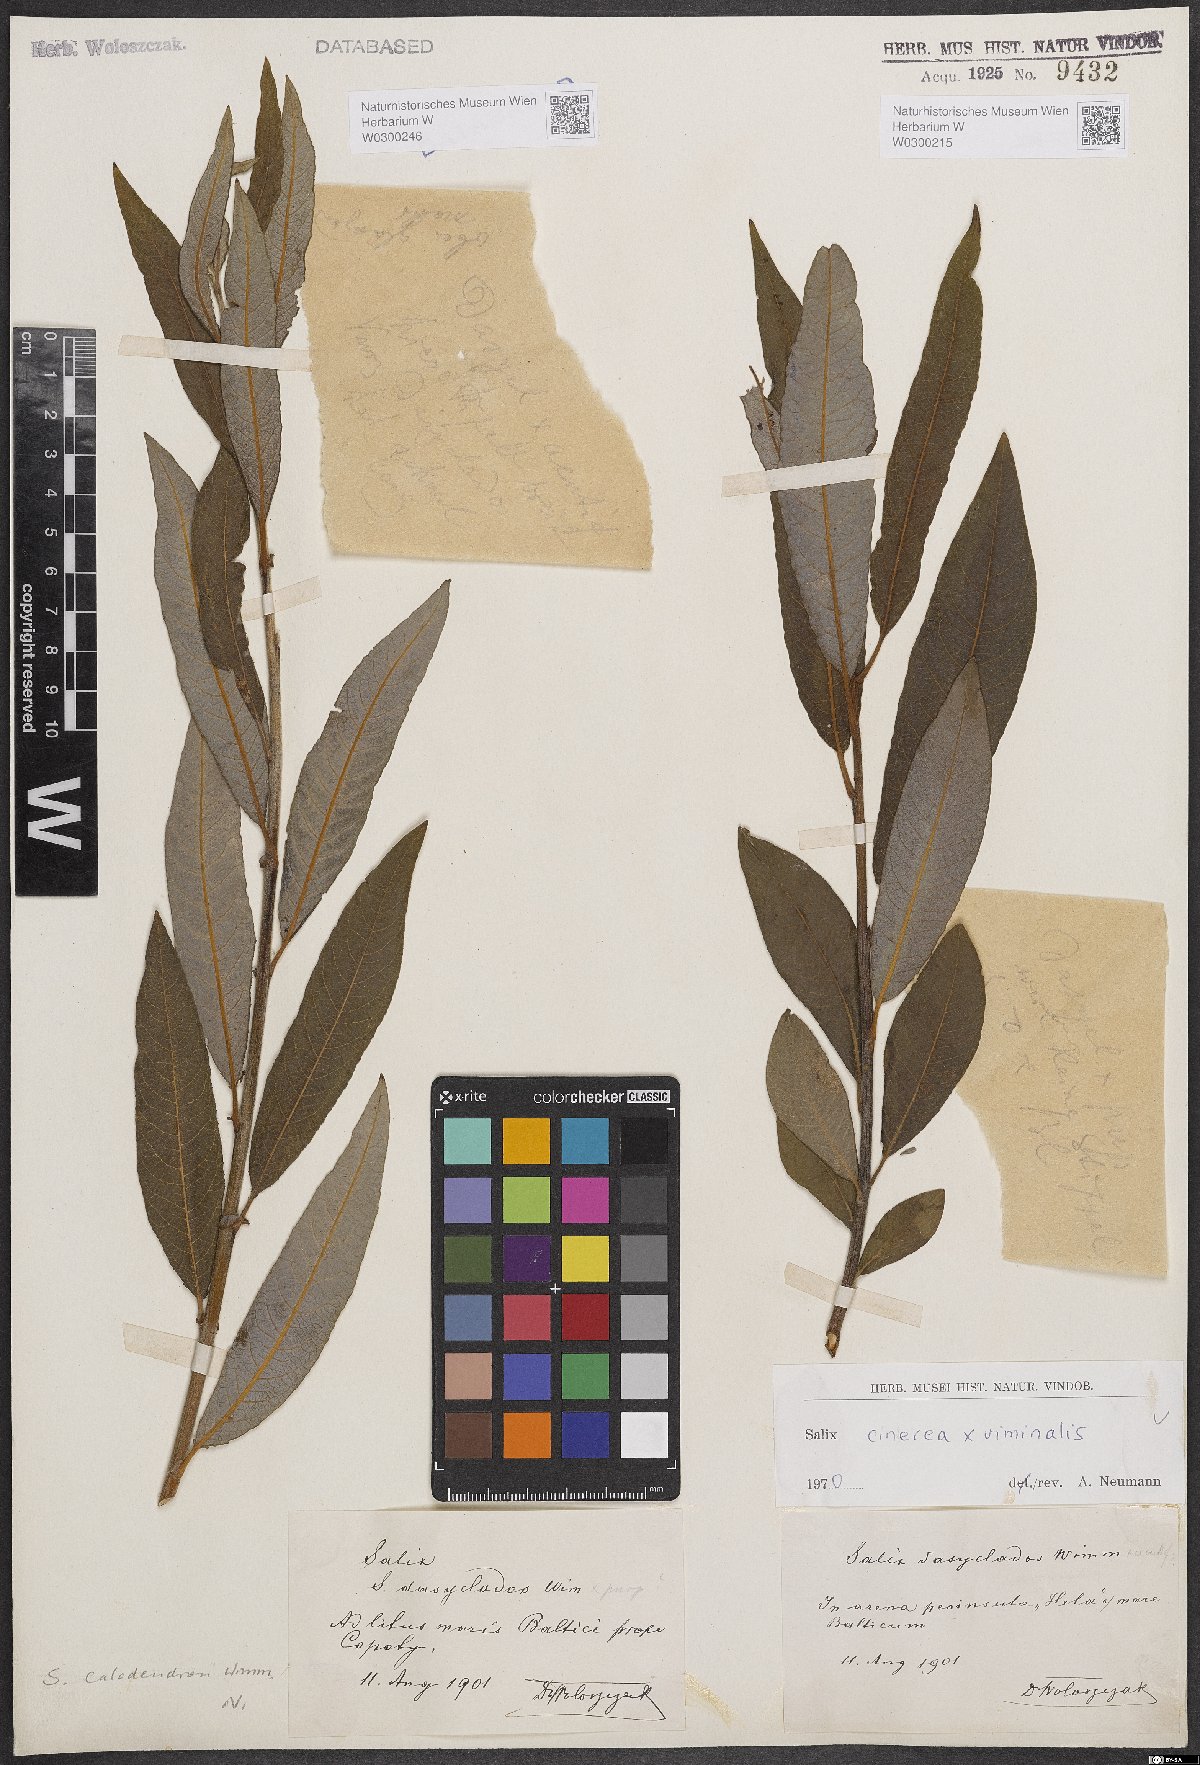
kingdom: Plantae
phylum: Tracheophyta
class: Magnoliopsida
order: Malpighiales
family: Salicaceae
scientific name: Salicaceae
